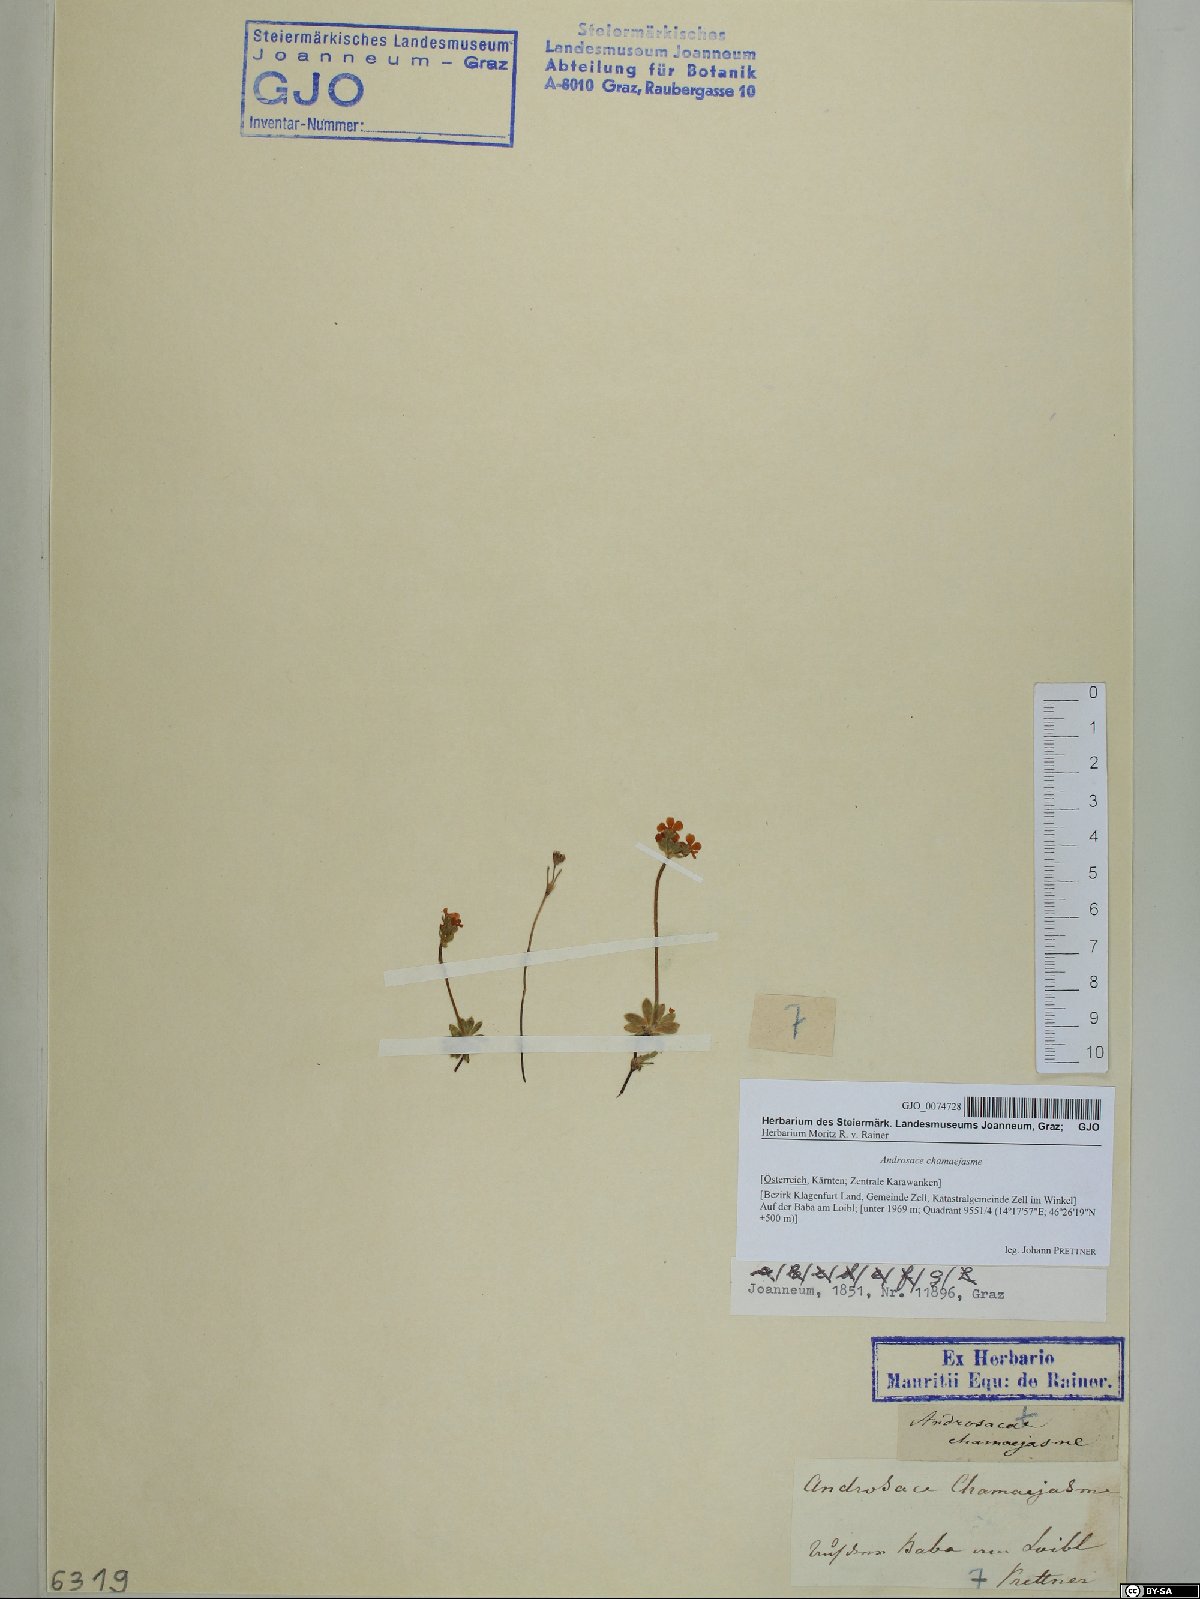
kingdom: Plantae
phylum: Tracheophyta
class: Magnoliopsida
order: Ericales
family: Primulaceae
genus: Androsace
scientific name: Androsace chamaejasme
